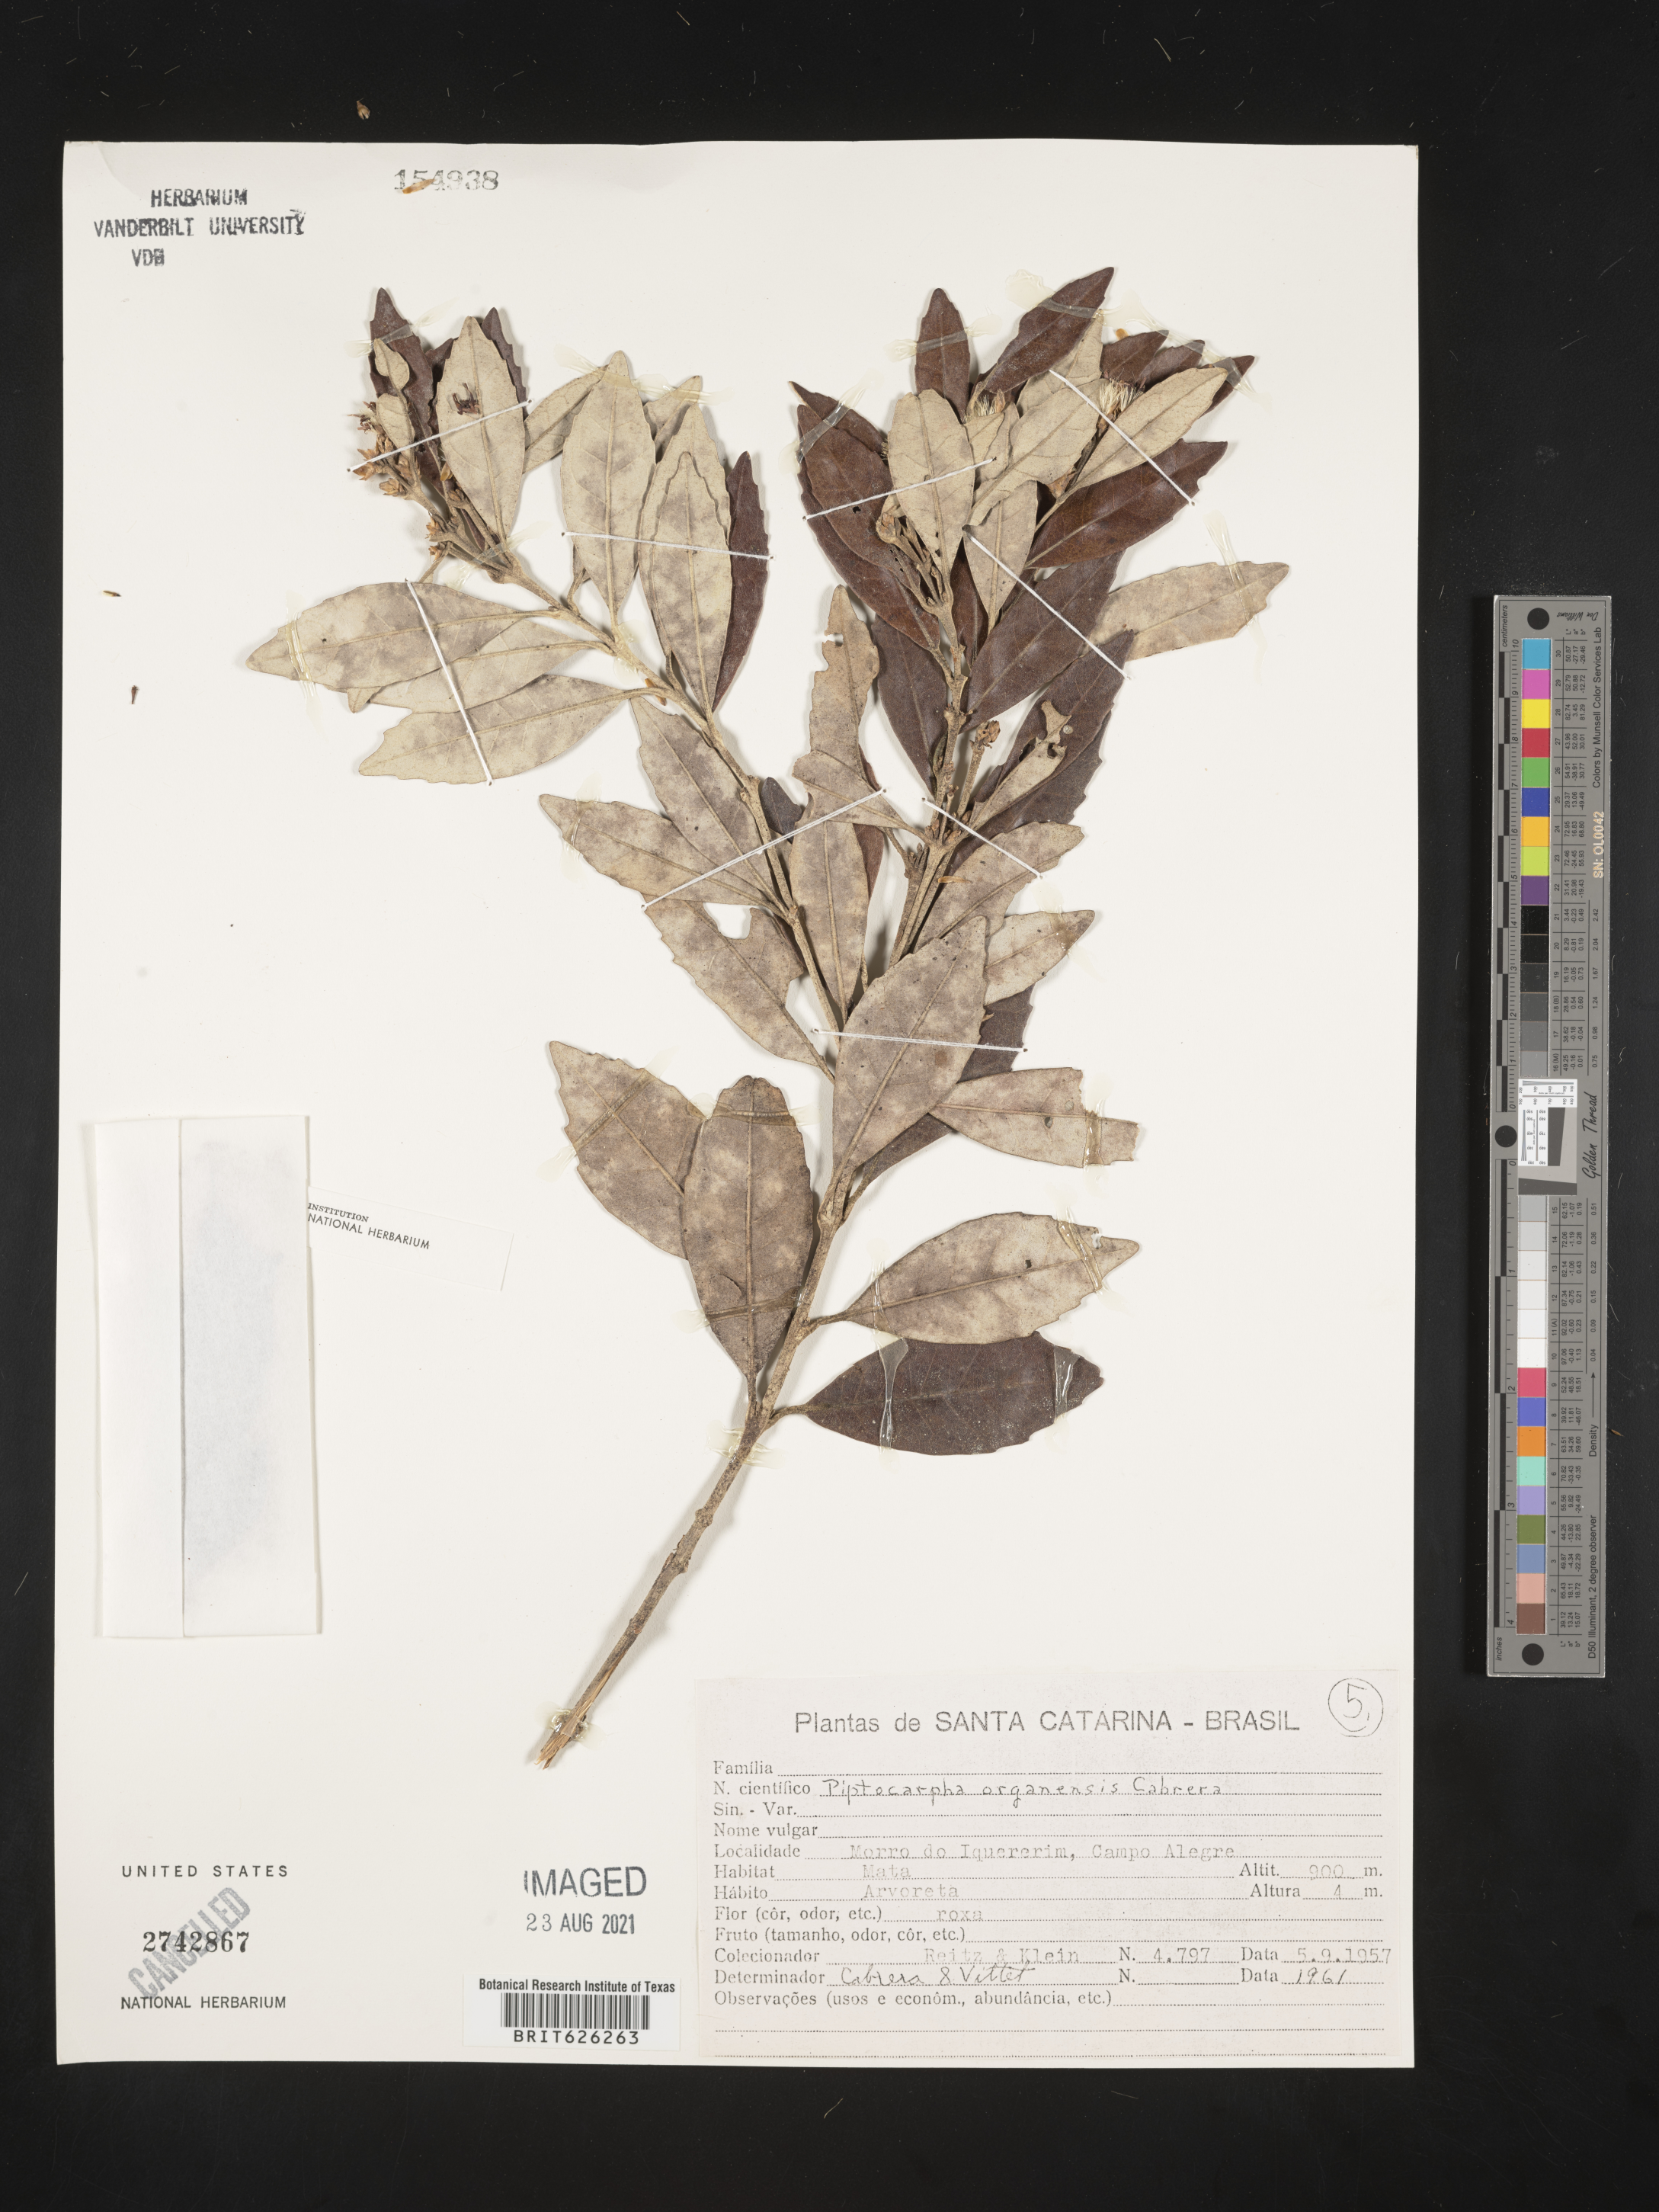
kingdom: Plantae
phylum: Tracheophyta
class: Magnoliopsida
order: Asterales
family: Asteraceae
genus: Piptocarpha
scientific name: Piptocarpha organensis
